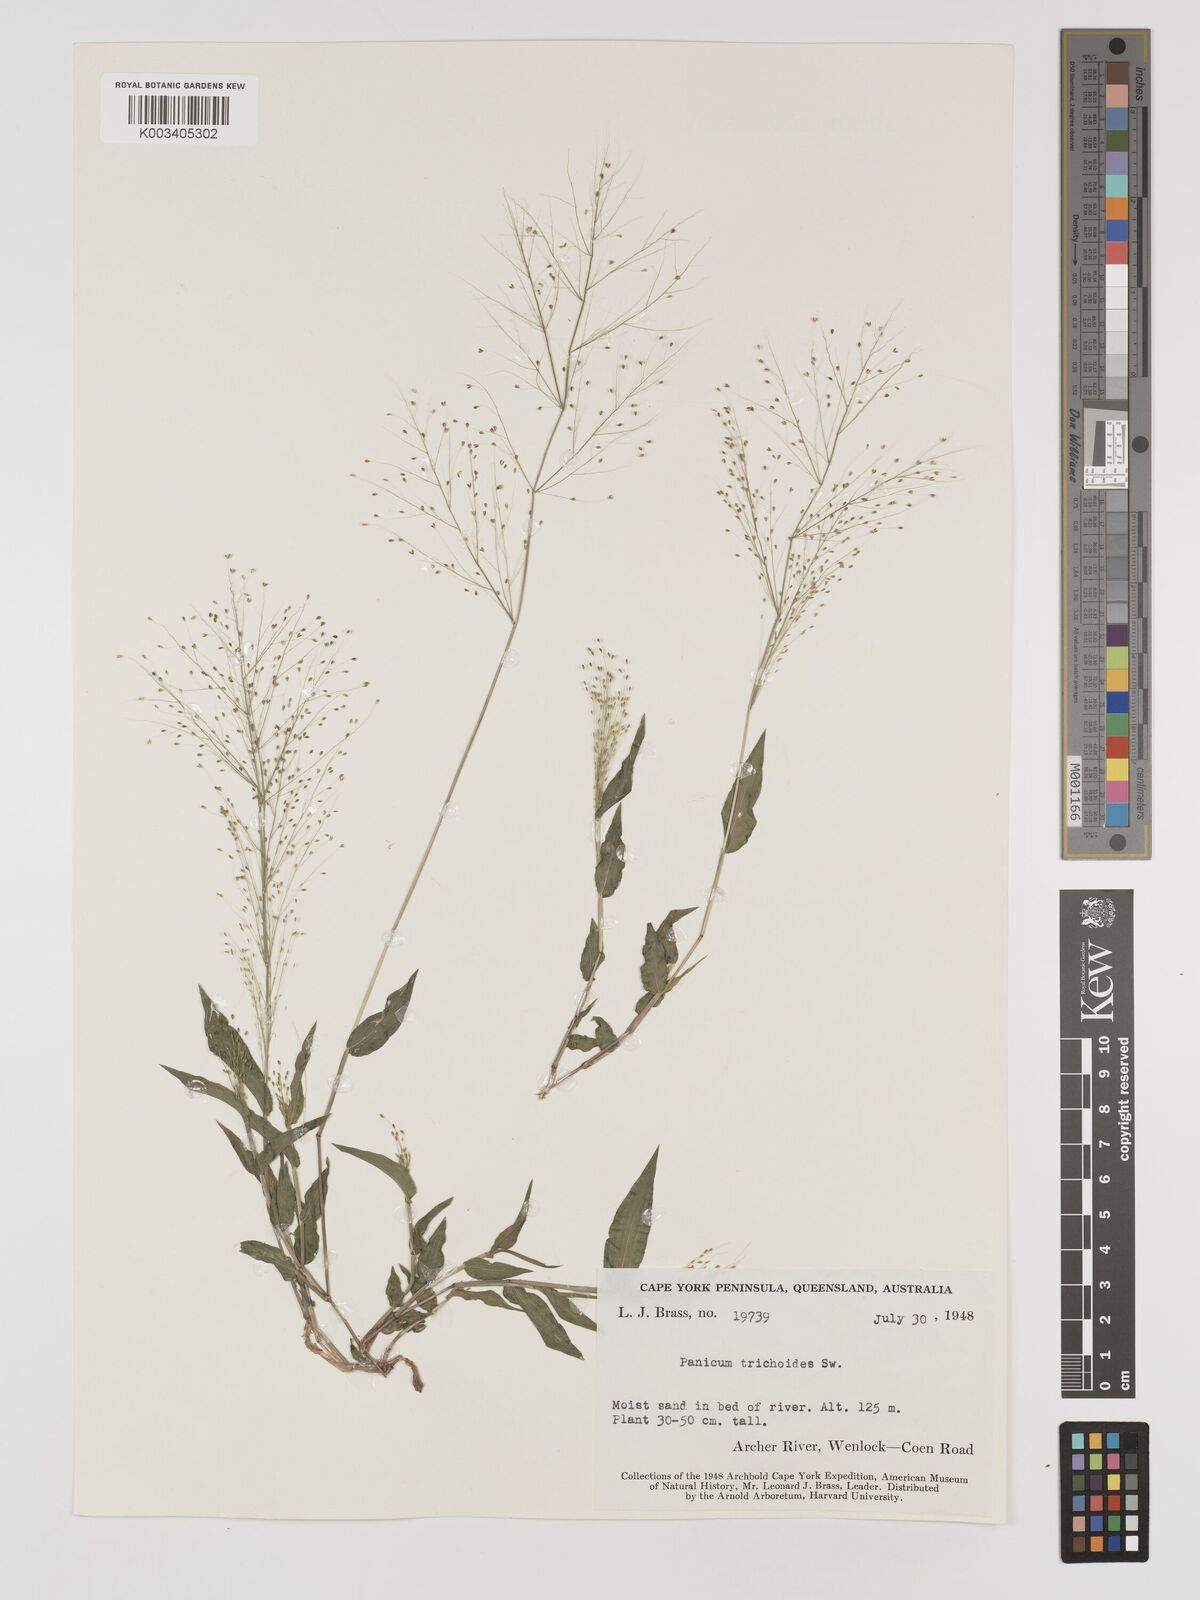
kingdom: Plantae
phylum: Tracheophyta
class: Liliopsida
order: Poales
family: Poaceae
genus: Panicum
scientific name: Panicum trichoides
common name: Tickle grass
